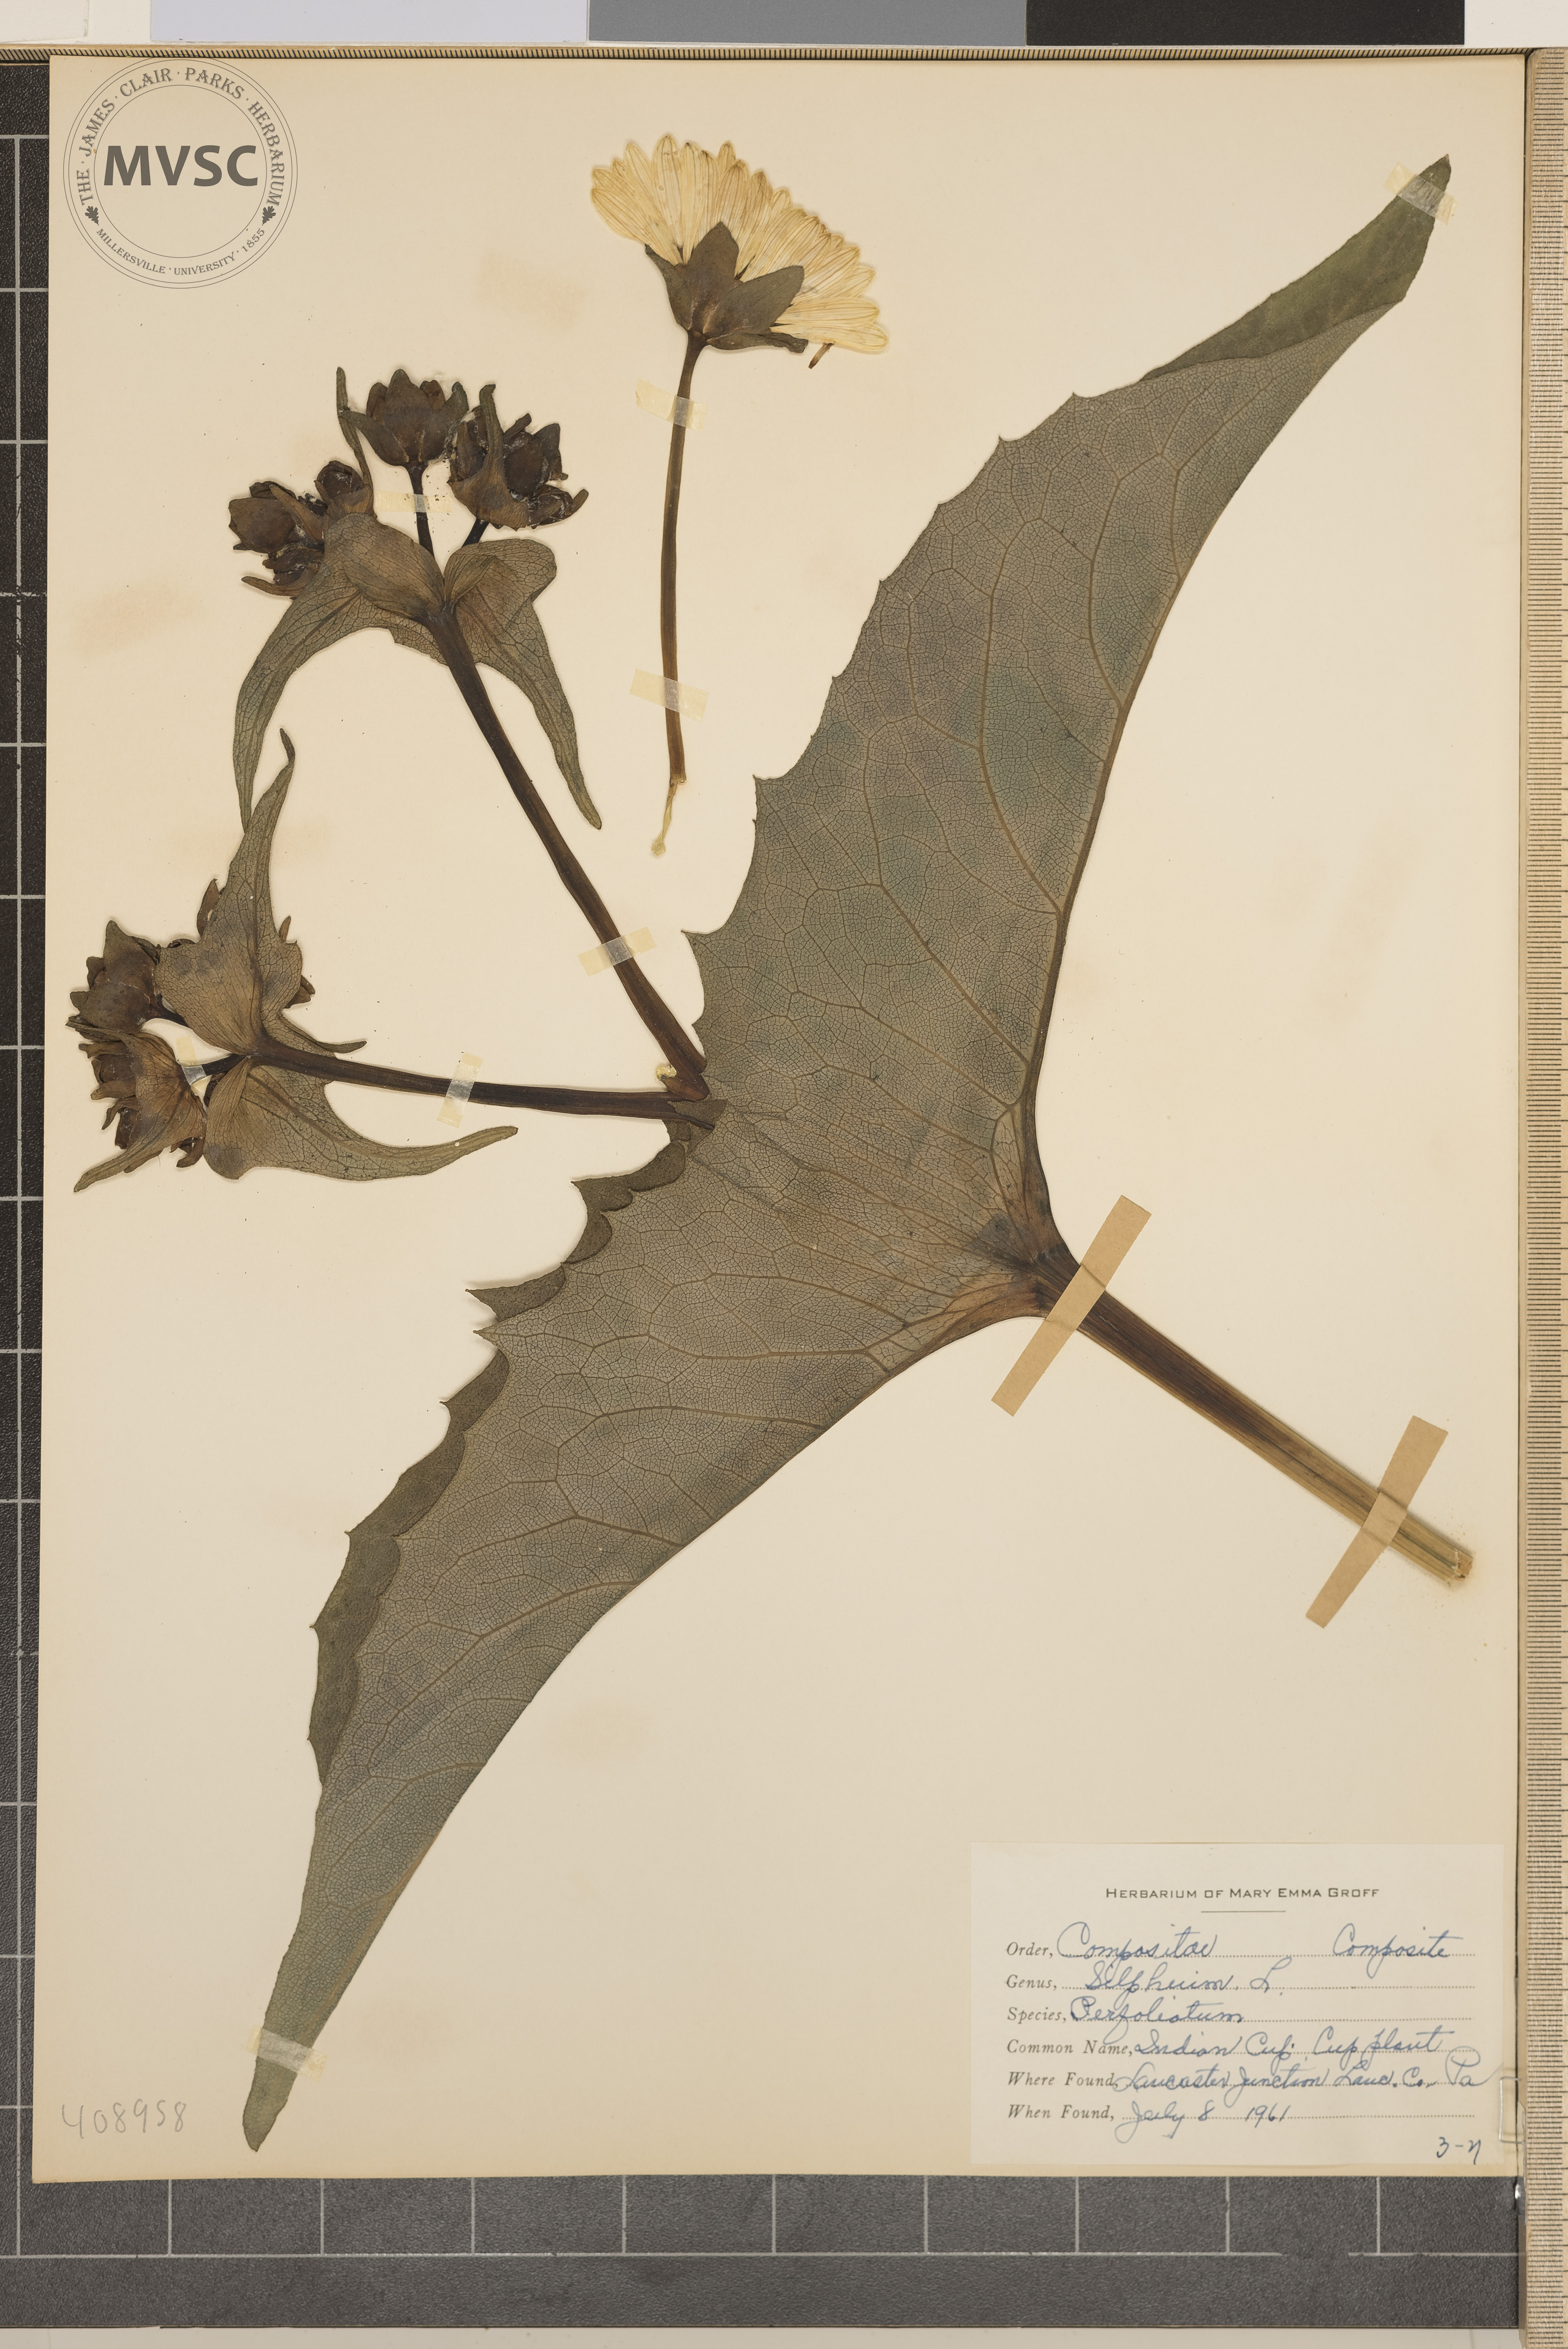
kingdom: Plantae
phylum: Tracheophyta
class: Magnoliopsida
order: Asterales
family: Asteraceae
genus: Silphium
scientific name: Silphium perfoliatum
